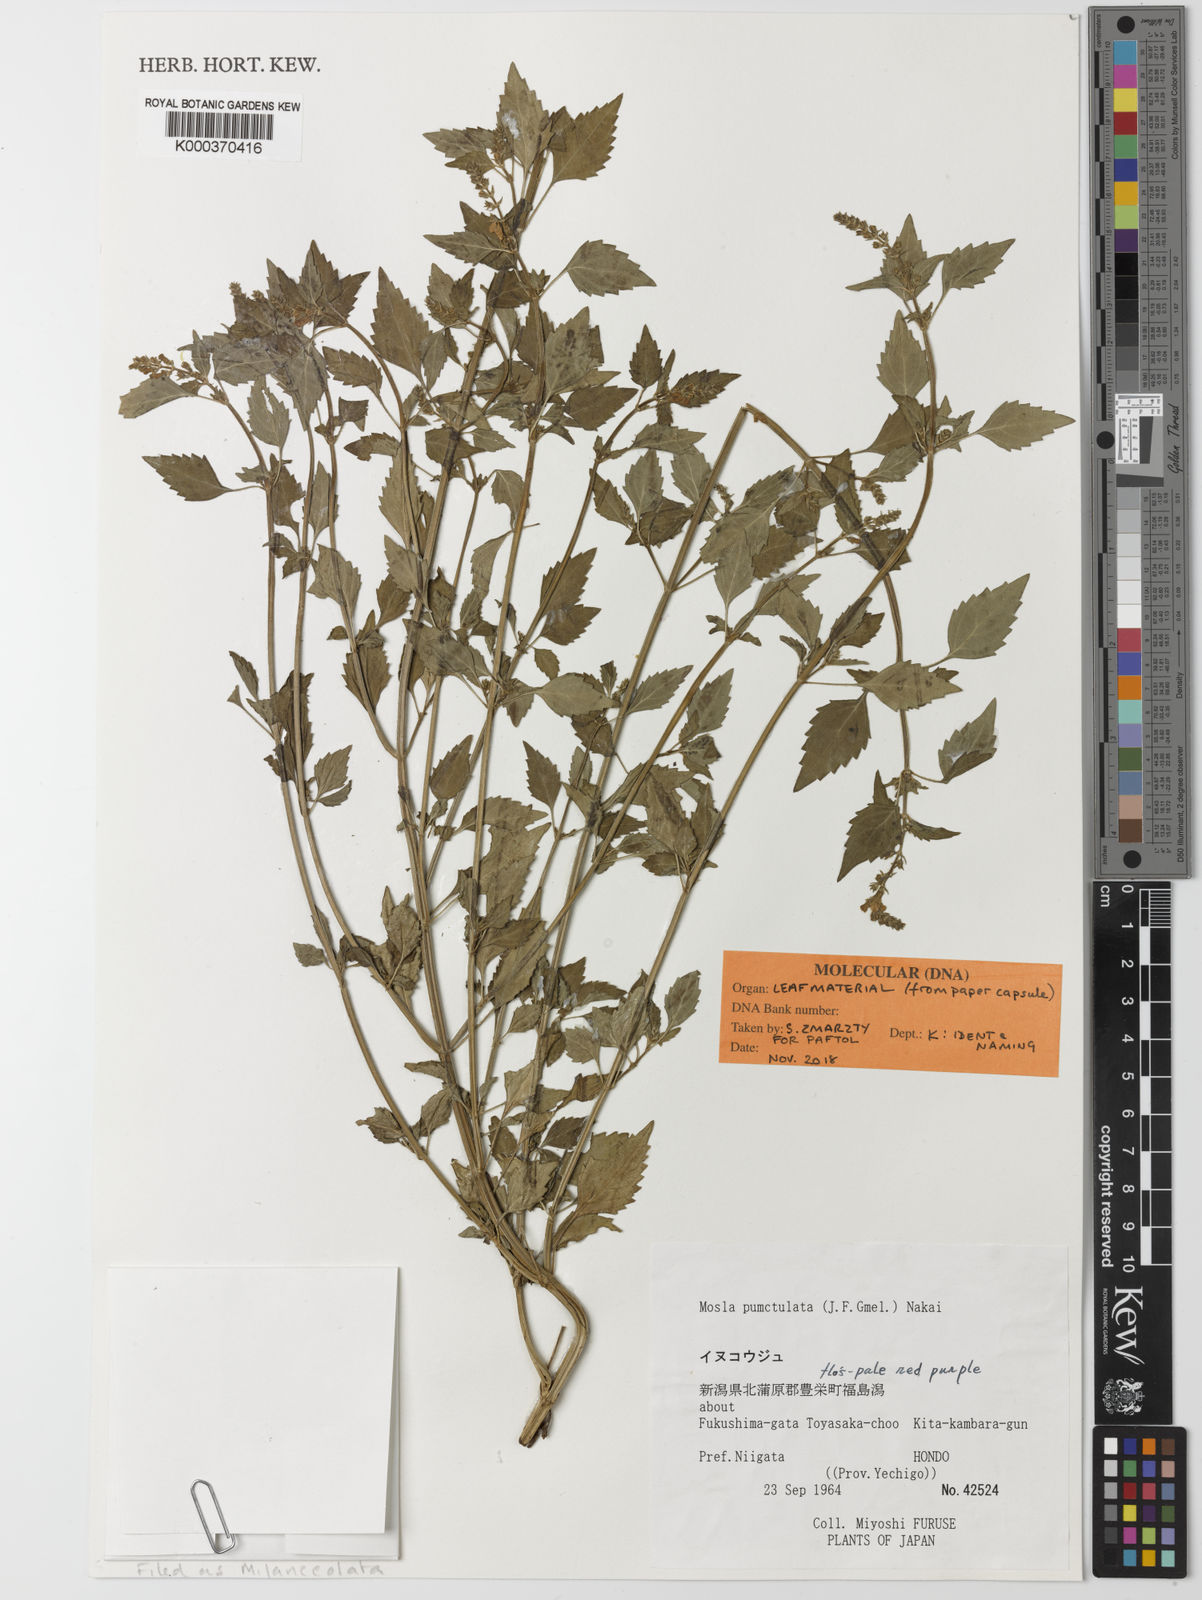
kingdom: Plantae
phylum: Tracheophyta
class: Magnoliopsida
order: Lamiales
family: Lamiaceae
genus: Mosla
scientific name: Mosla scabra
